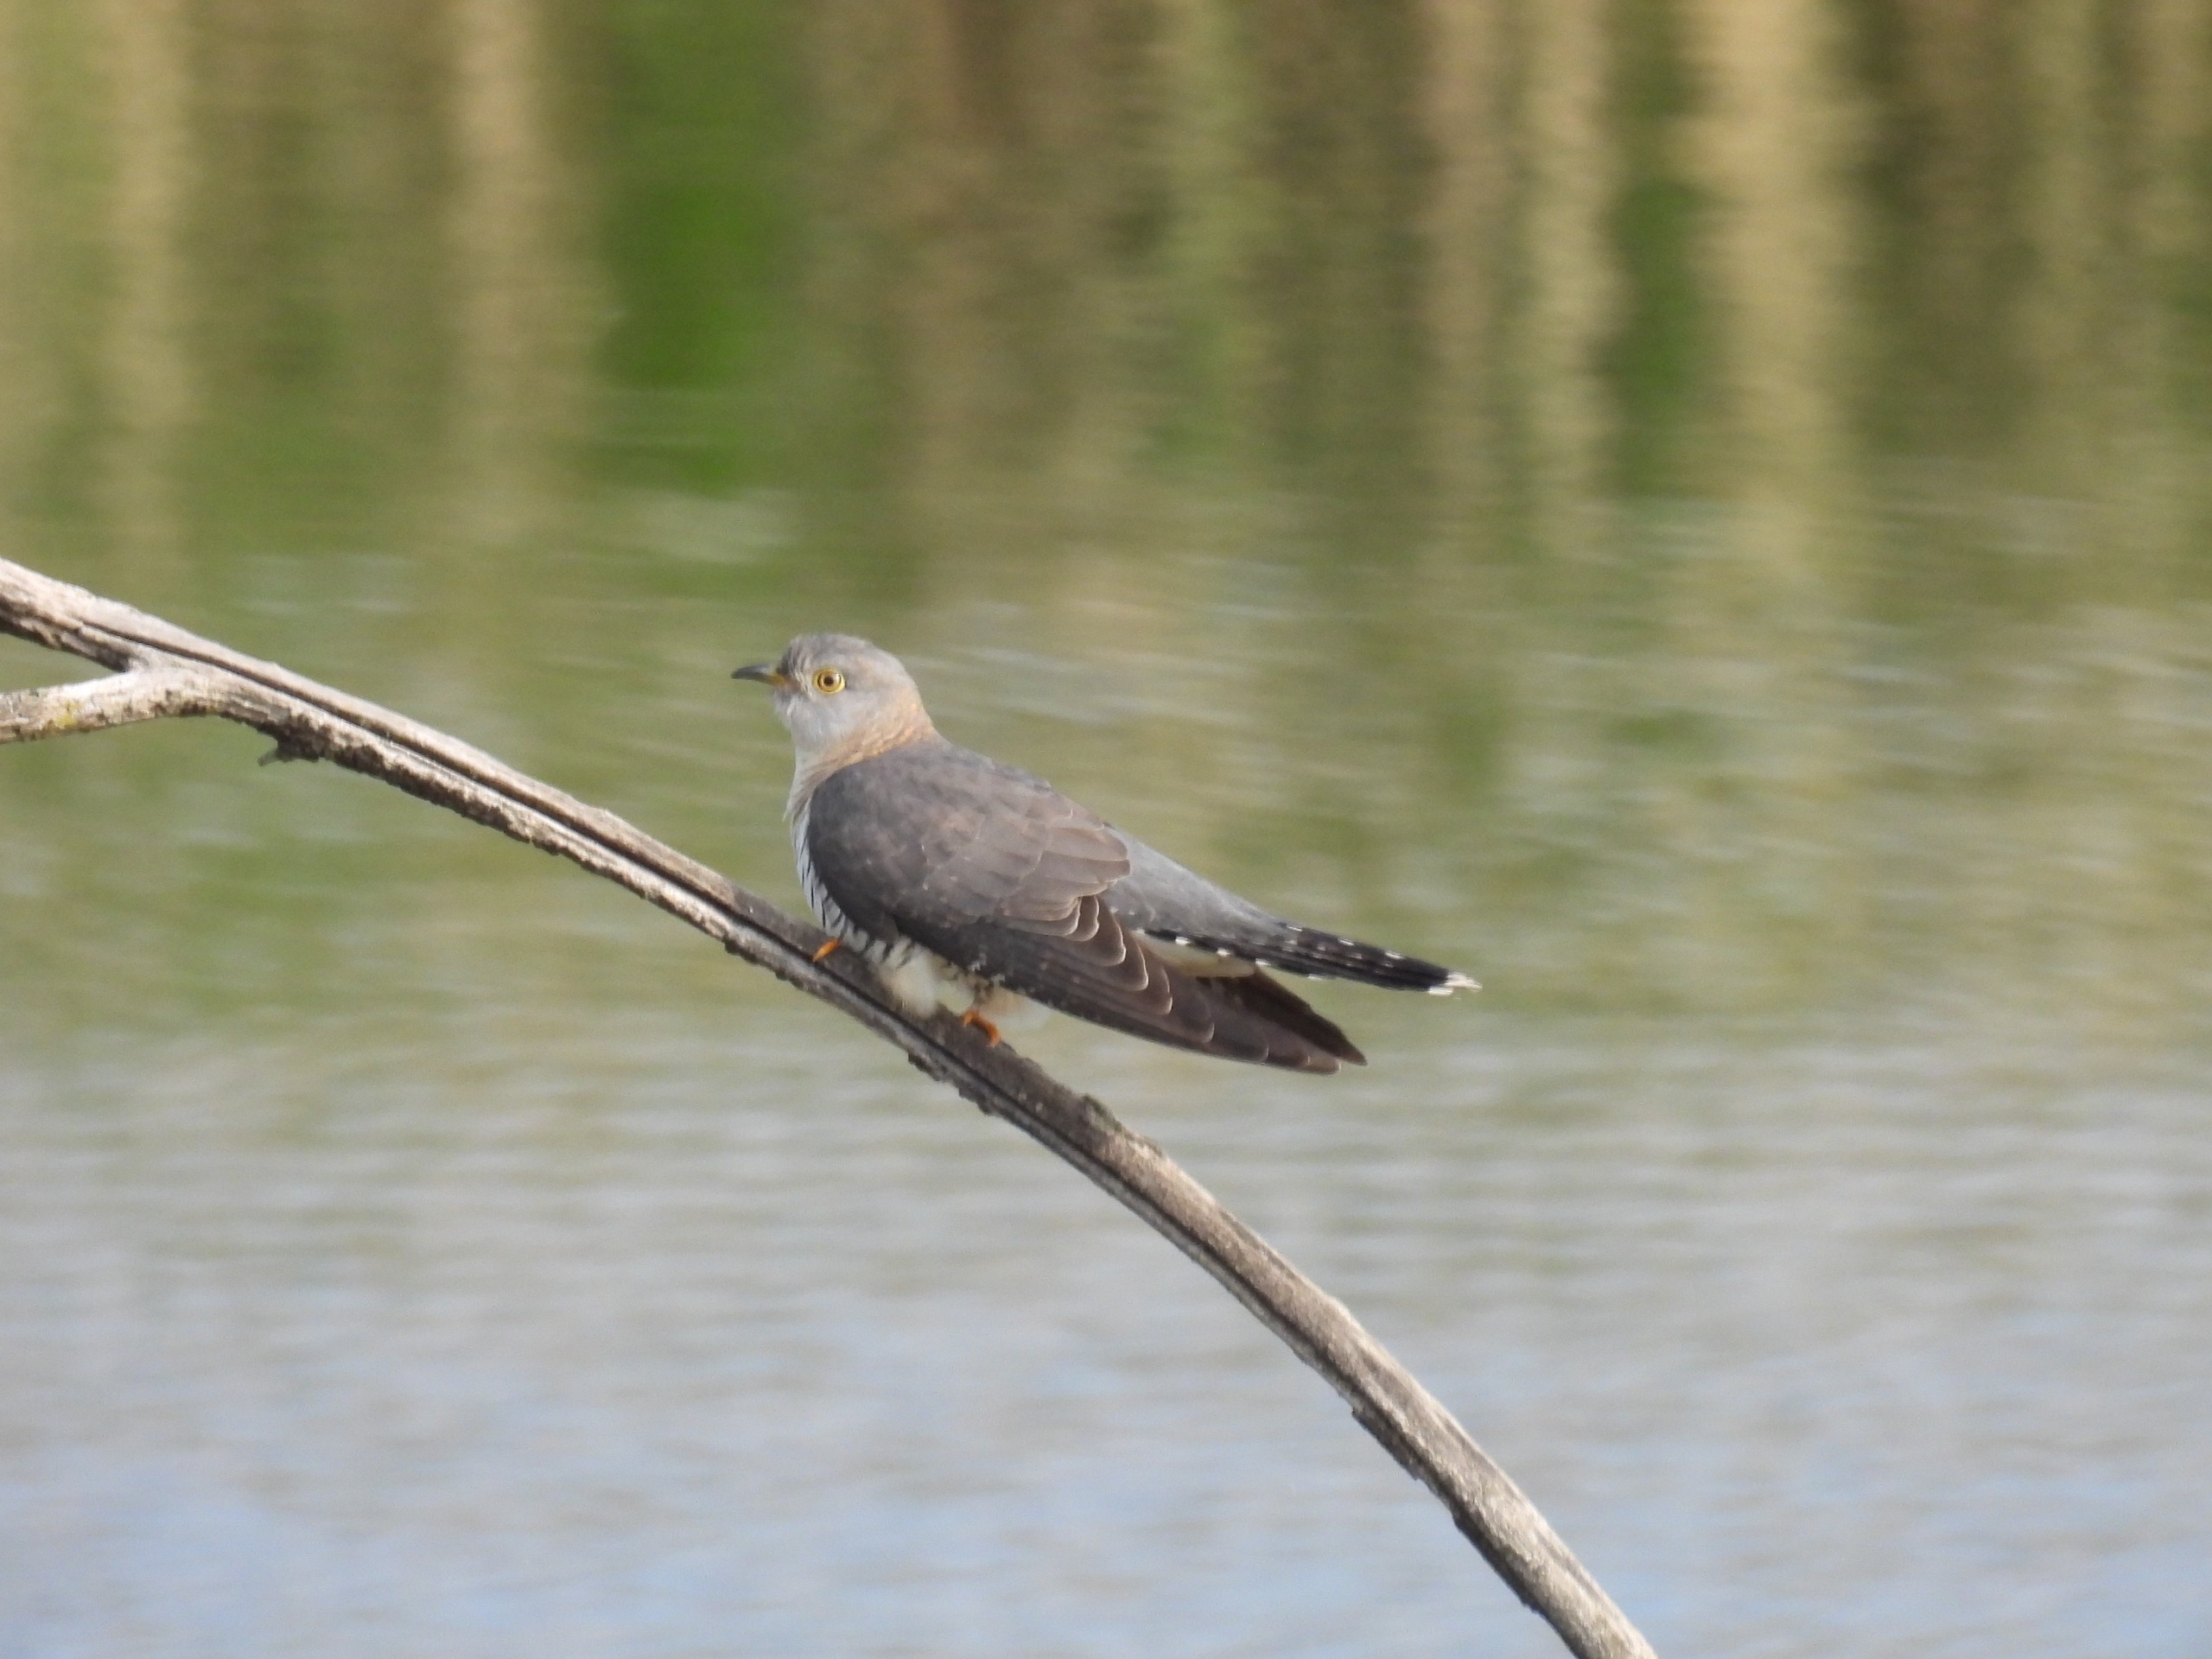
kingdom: Animalia
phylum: Chordata
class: Aves
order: Cuculiformes
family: Cuculidae
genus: Cuculus
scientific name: Cuculus canorus
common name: Gøg
